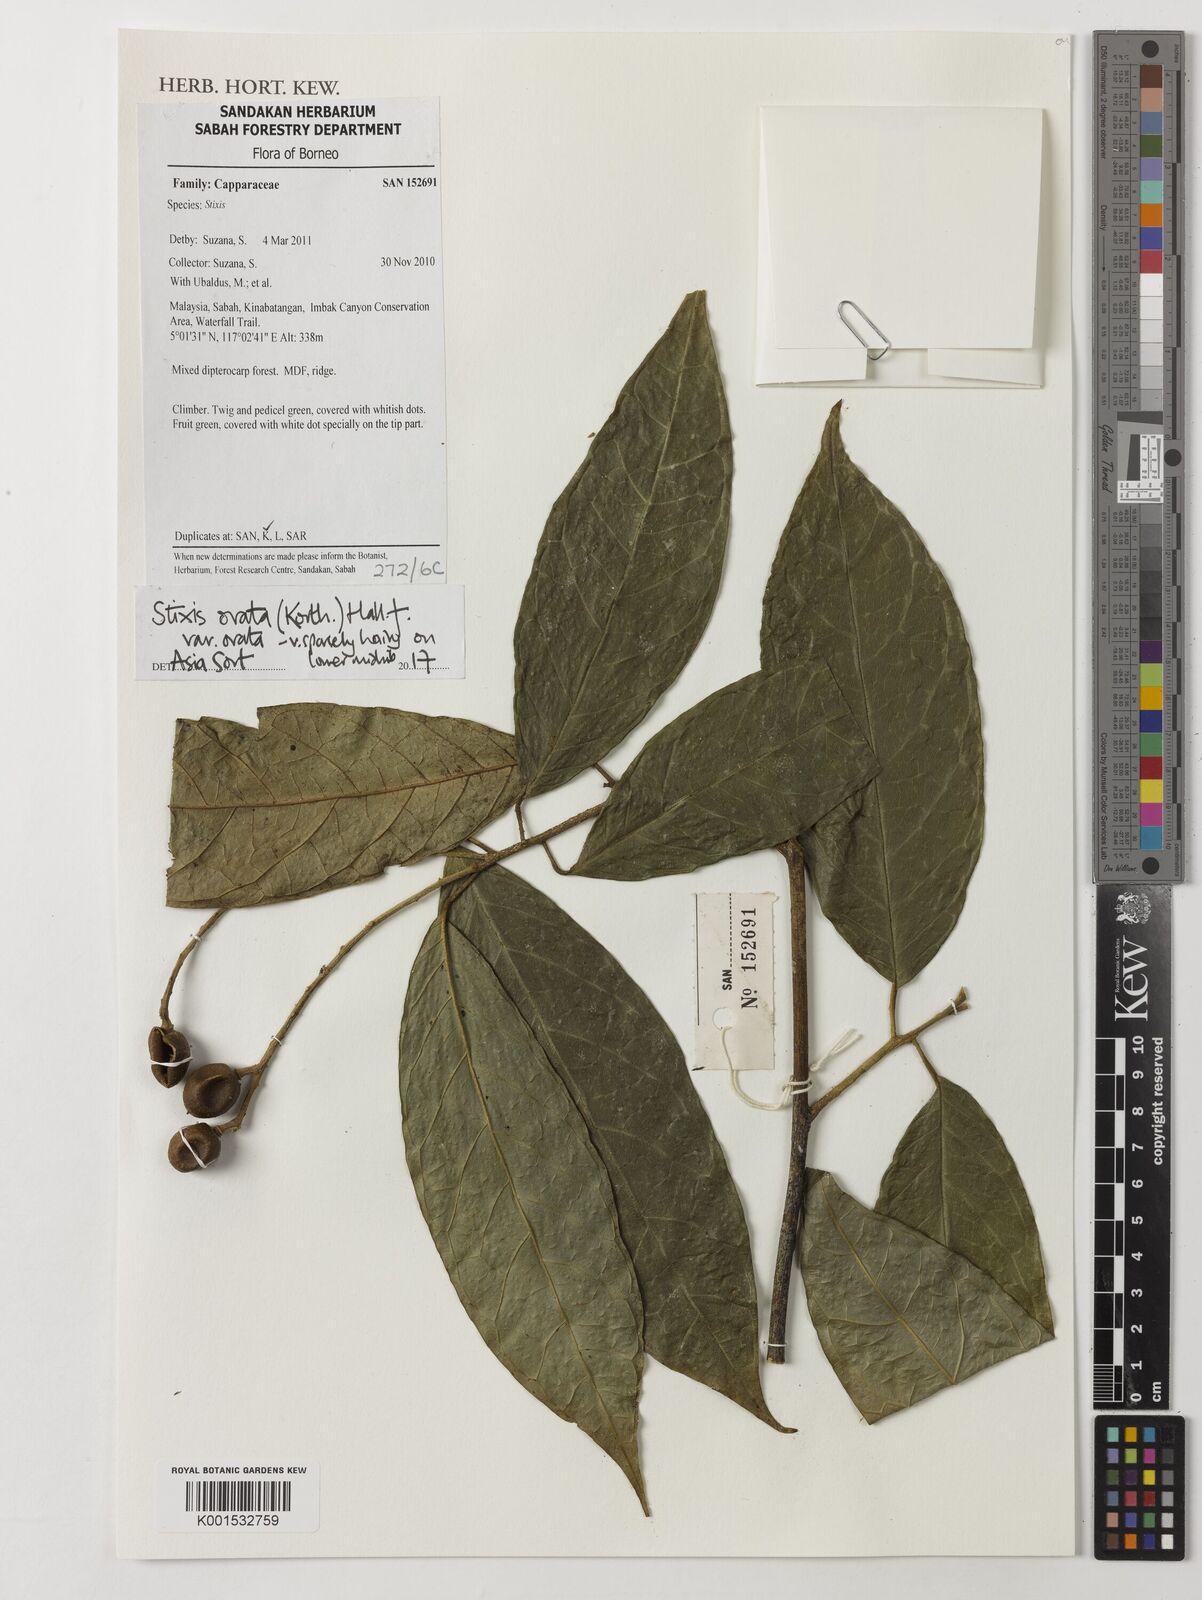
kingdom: Plantae
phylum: Tracheophyta
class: Magnoliopsida
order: Brassicales
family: Stixaceae
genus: Stixis
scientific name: Stixis ovata
